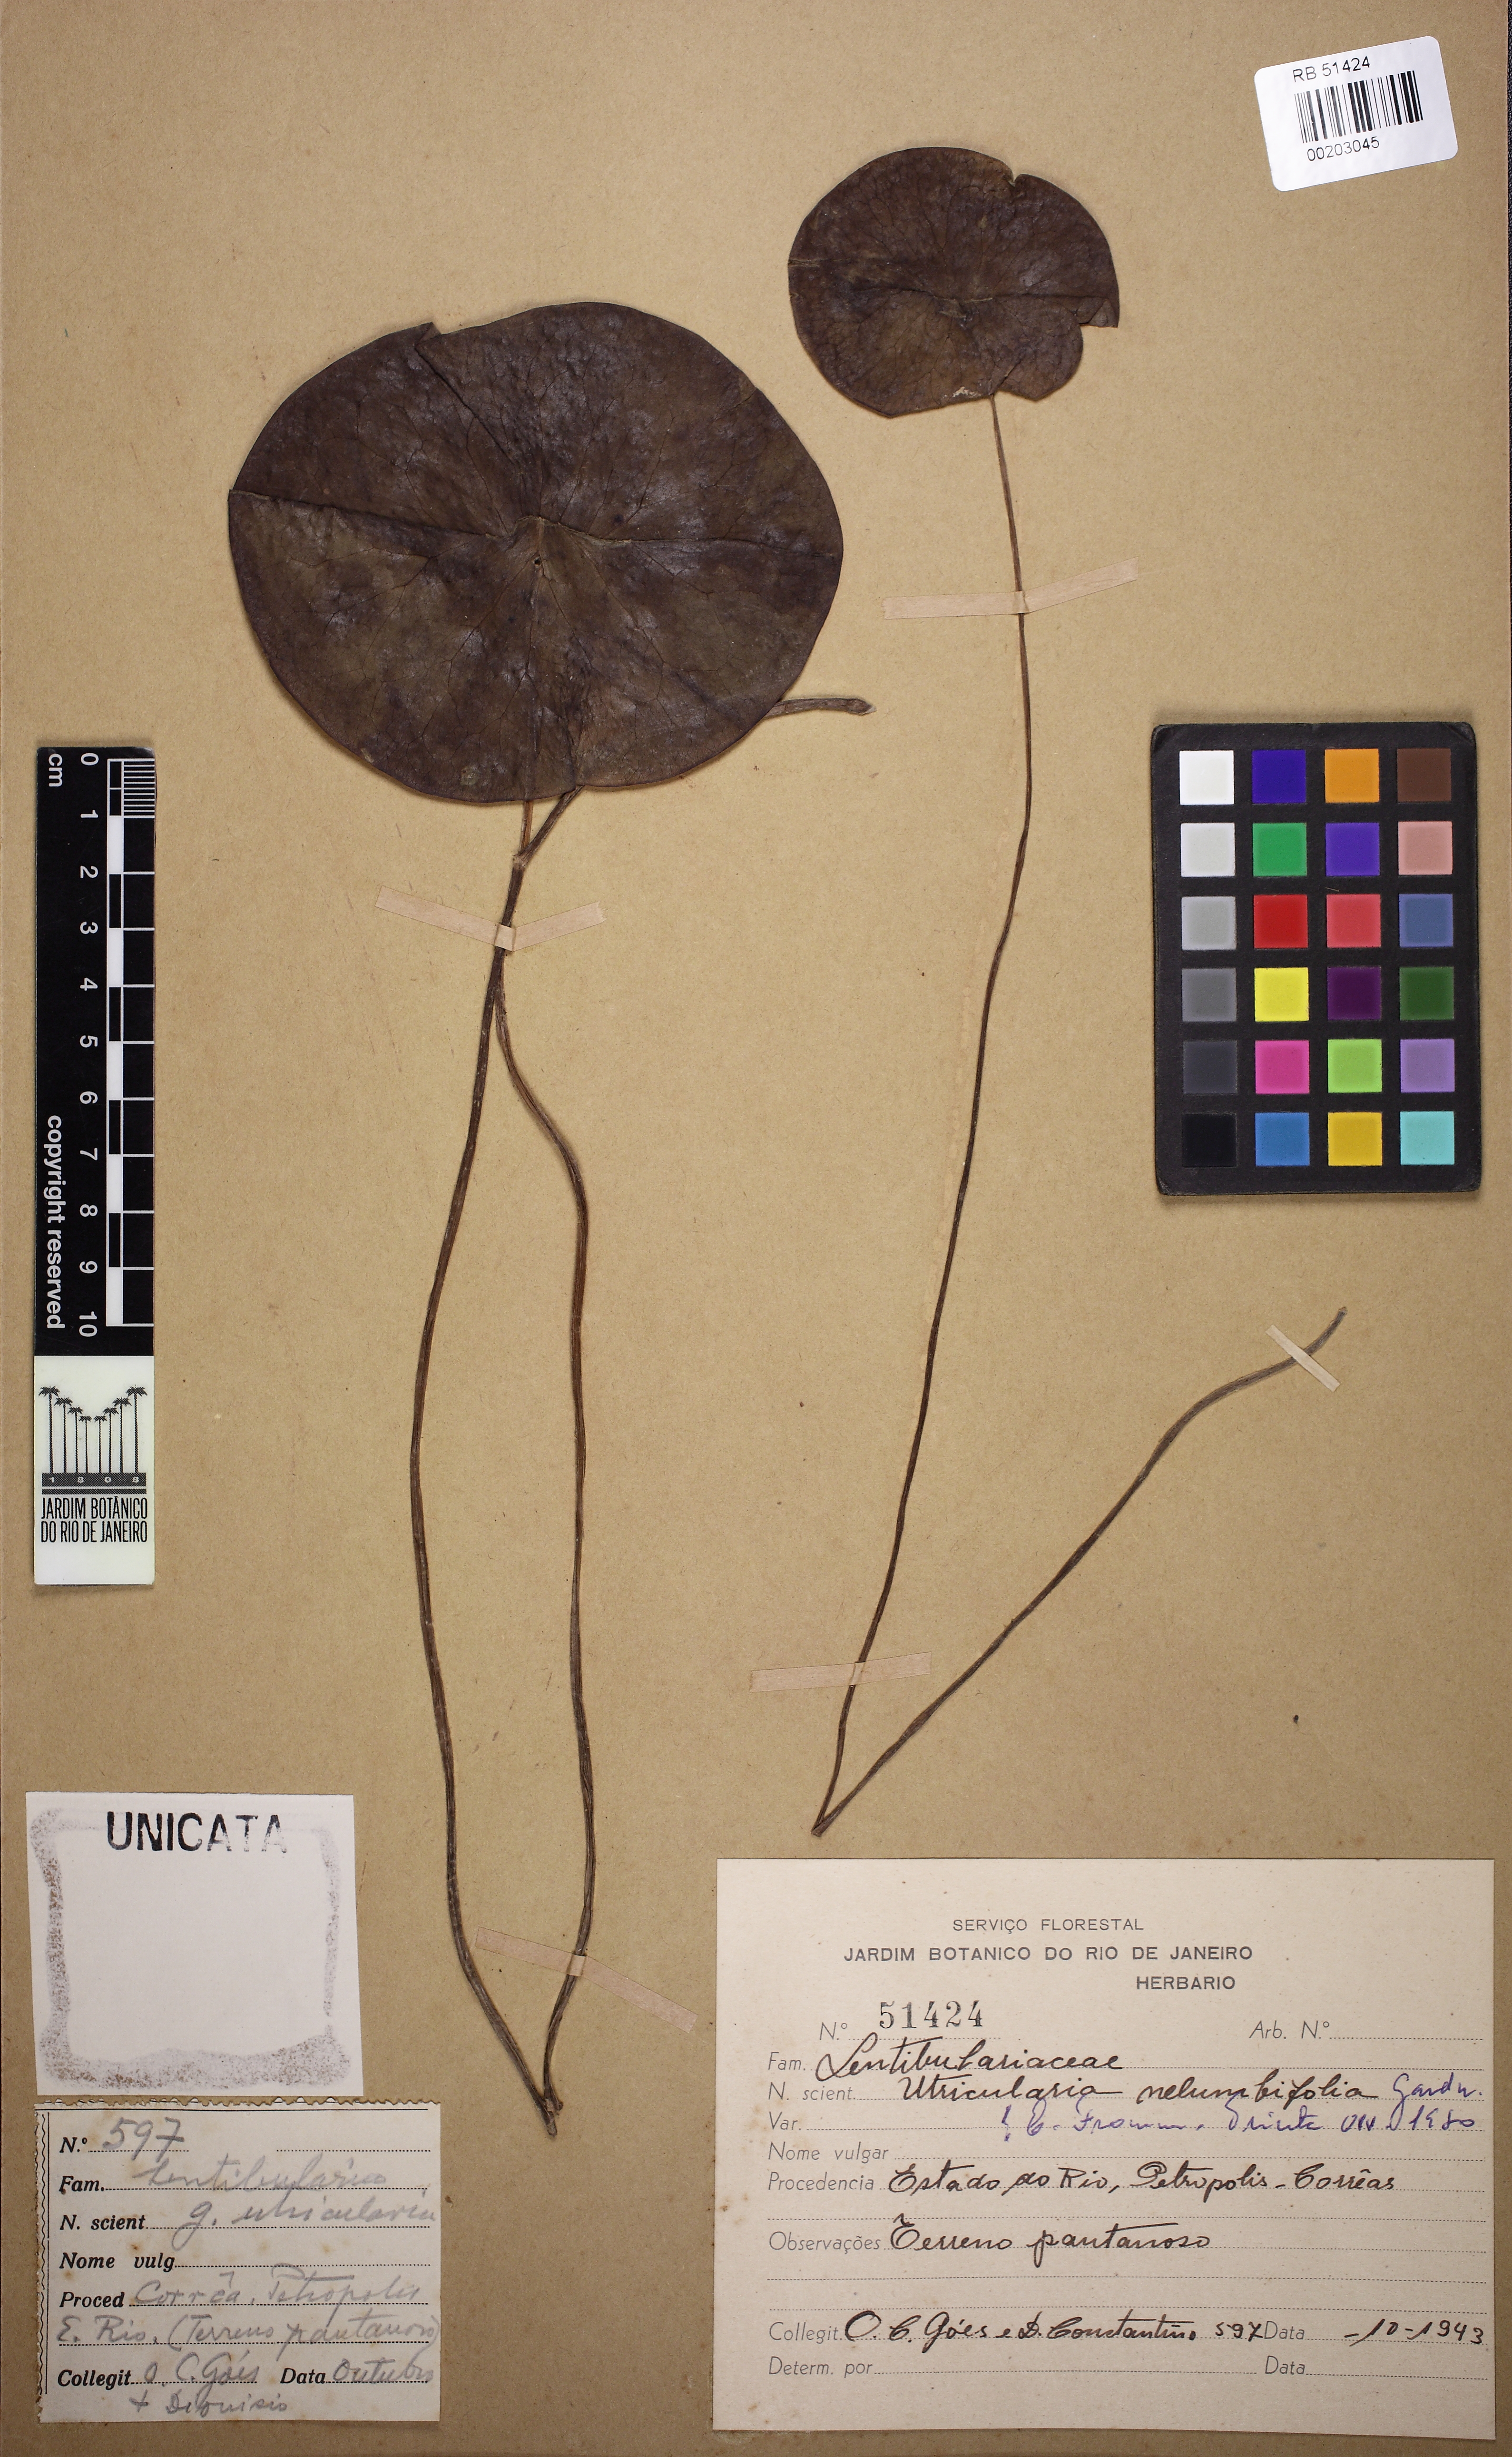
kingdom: Plantae
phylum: Tracheophyta
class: Magnoliopsida
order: Lamiales
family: Lentibulariaceae
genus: Utricularia
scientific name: Utricularia nelumbifolia
